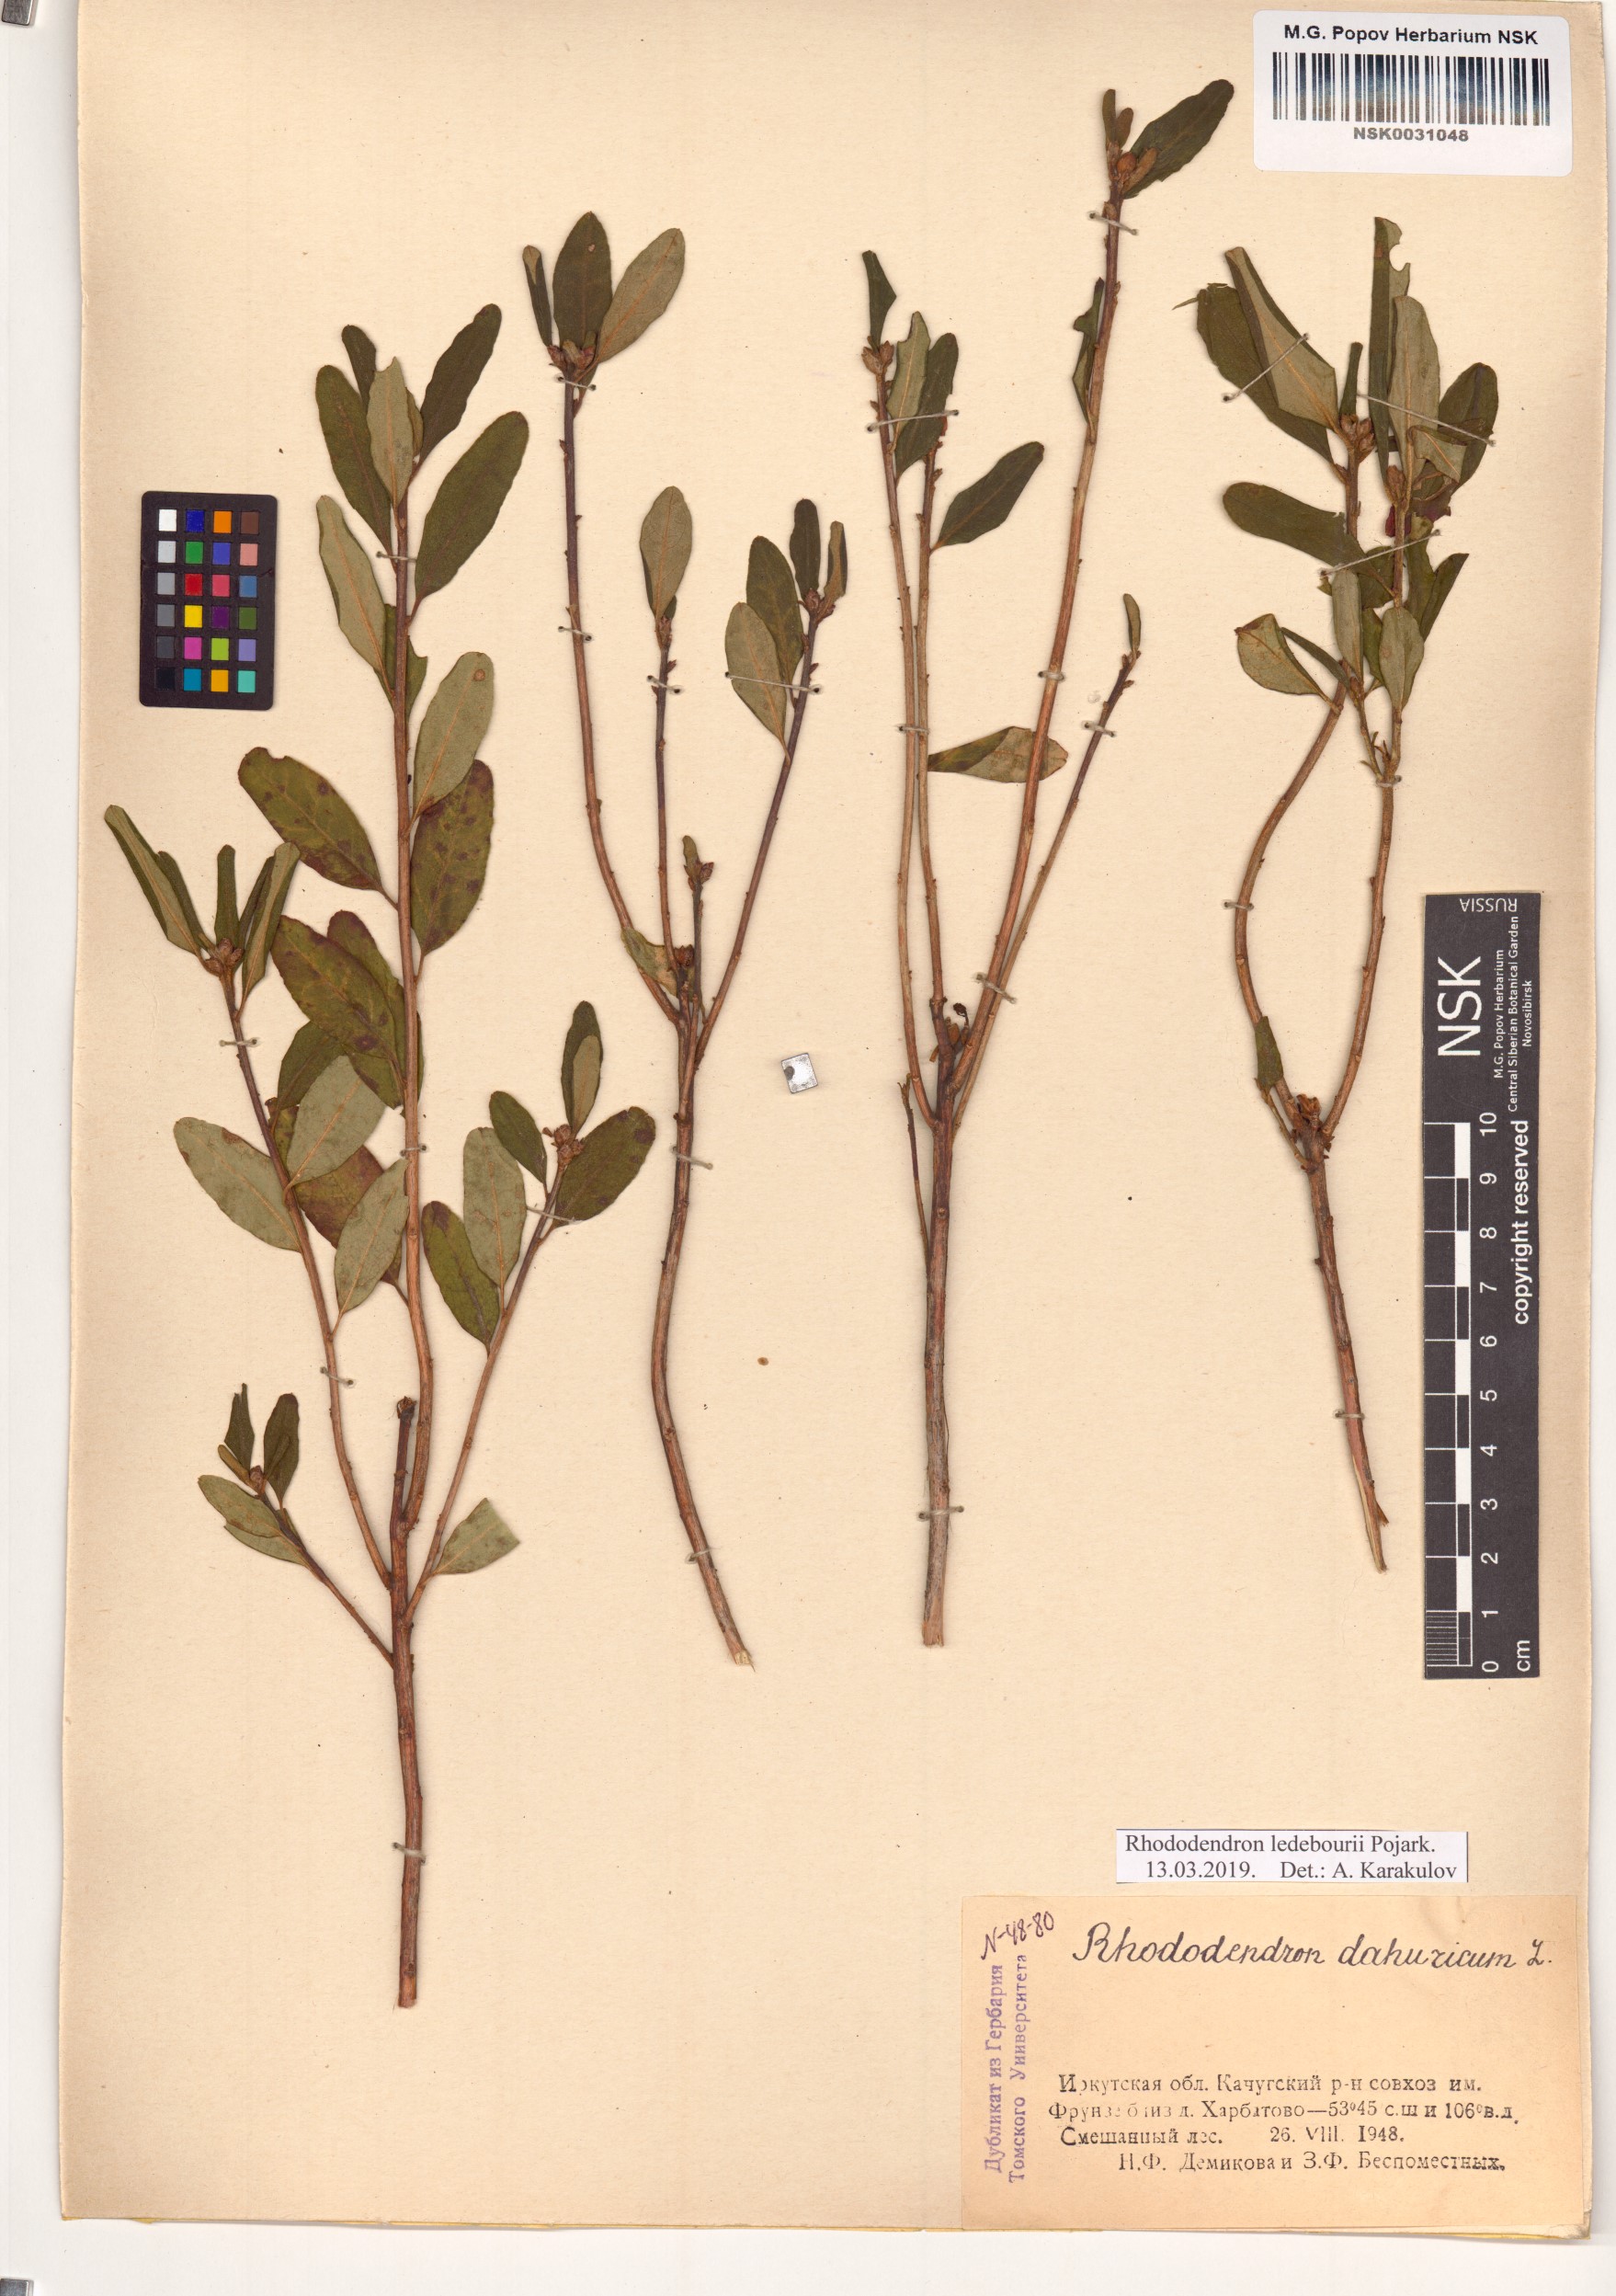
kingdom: Plantae
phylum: Tracheophyta
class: Magnoliopsida
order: Ericales
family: Ericaceae
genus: Rhododendron
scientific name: Rhododendron dauricum
